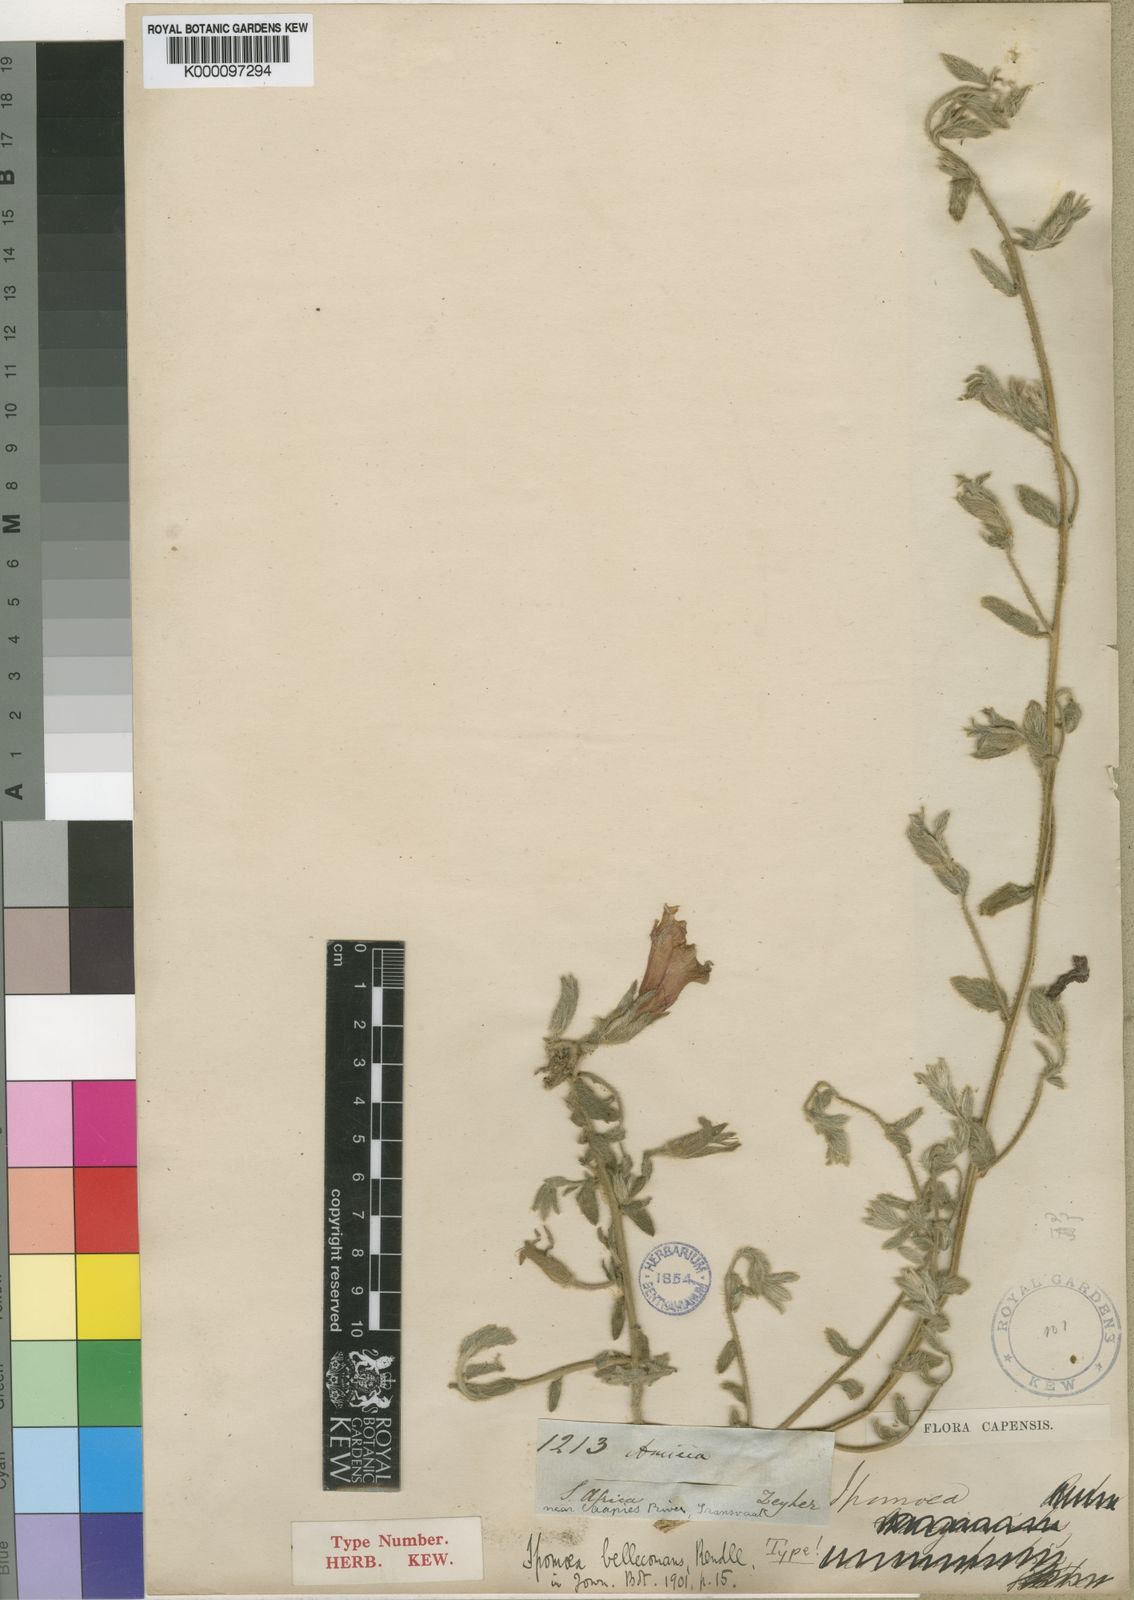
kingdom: Plantae
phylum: Tracheophyta
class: Magnoliopsida
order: Solanales
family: Convolvulaceae
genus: Ipomoea
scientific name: Ipomoea crassipes
